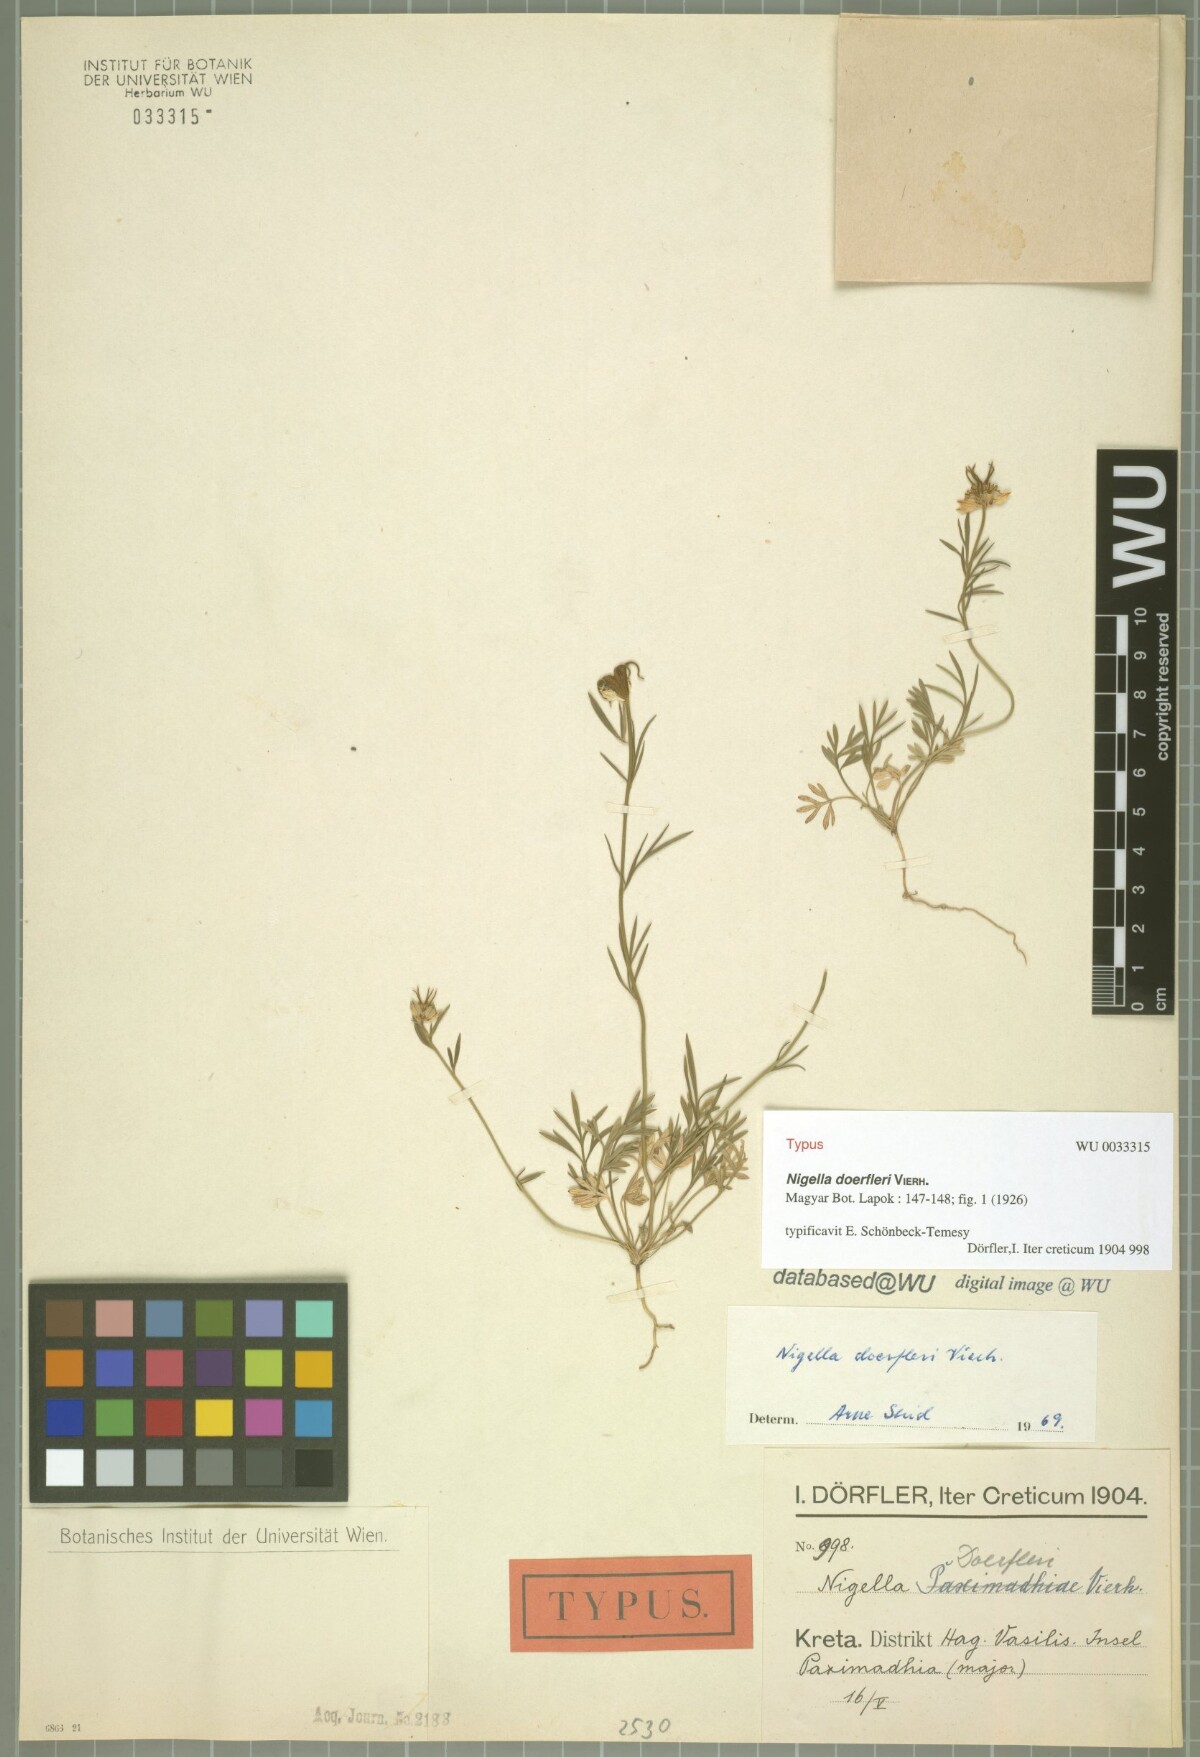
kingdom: Plantae
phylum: Tracheophyta
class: Magnoliopsida
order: Ranunculales
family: Ranunculaceae
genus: Nigella
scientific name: Nigella doerfleri
